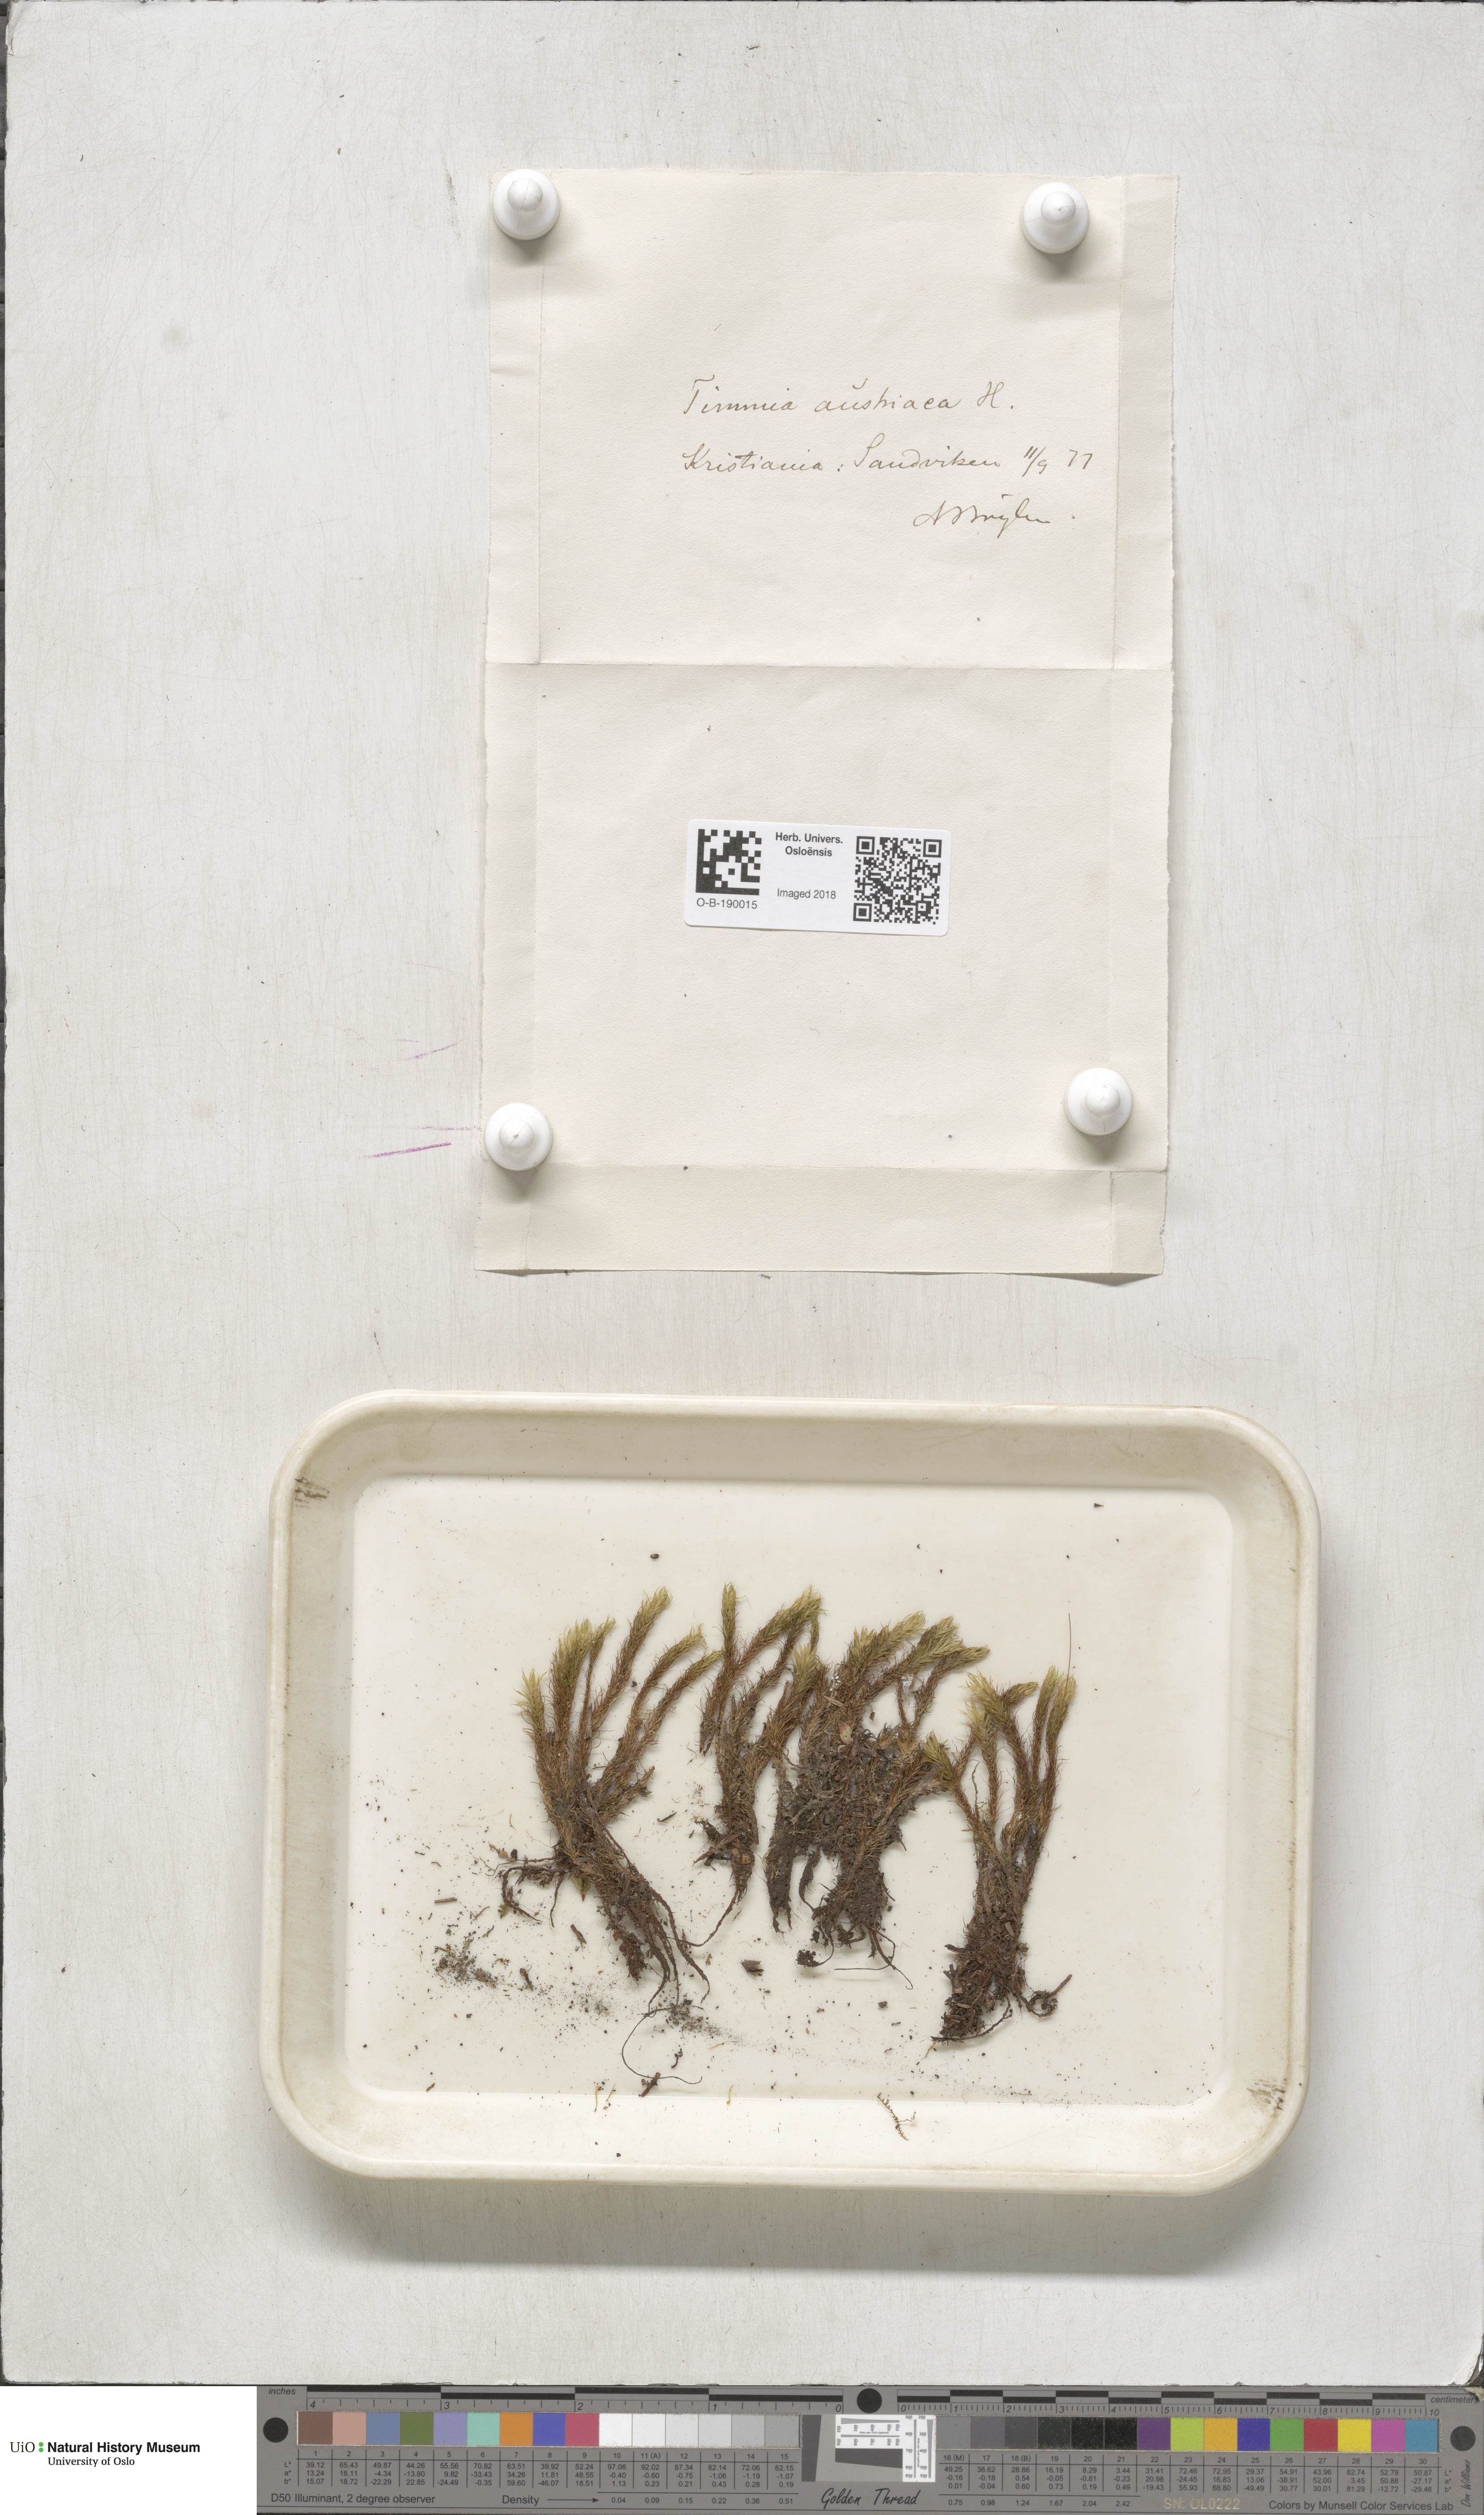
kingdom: Plantae
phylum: Bryophyta
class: Bryopsida
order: Timmiales
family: Timmiaceae
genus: Timmia
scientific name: Timmia austriaca
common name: Austrian timmia
